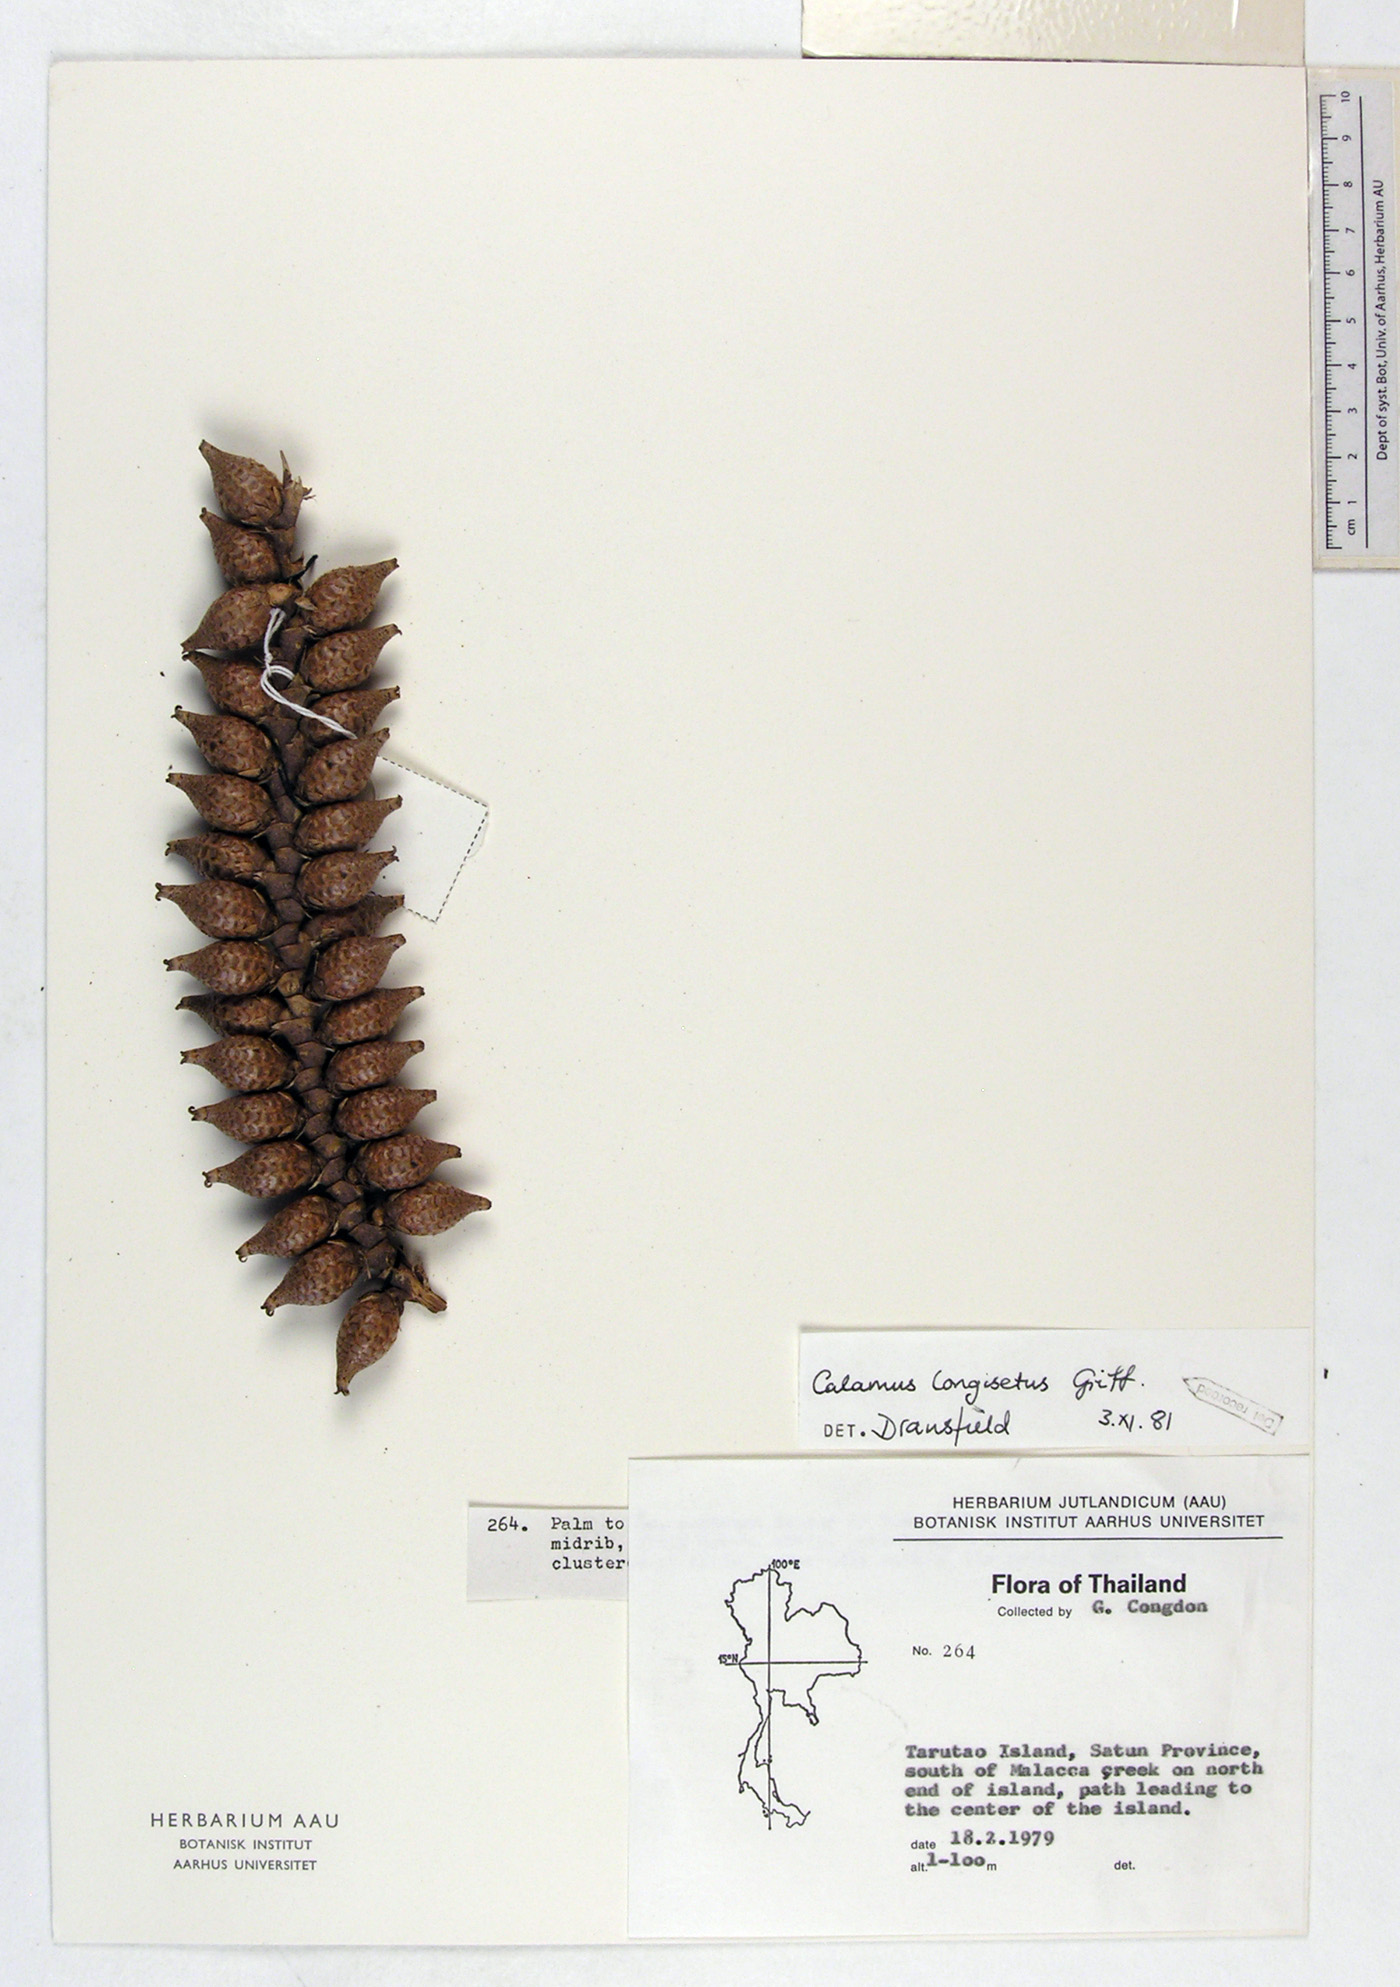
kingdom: Plantae
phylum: Tracheophyta
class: Liliopsida
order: Arecales
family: Arecaceae
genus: Calamus
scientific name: Calamus longisetus
